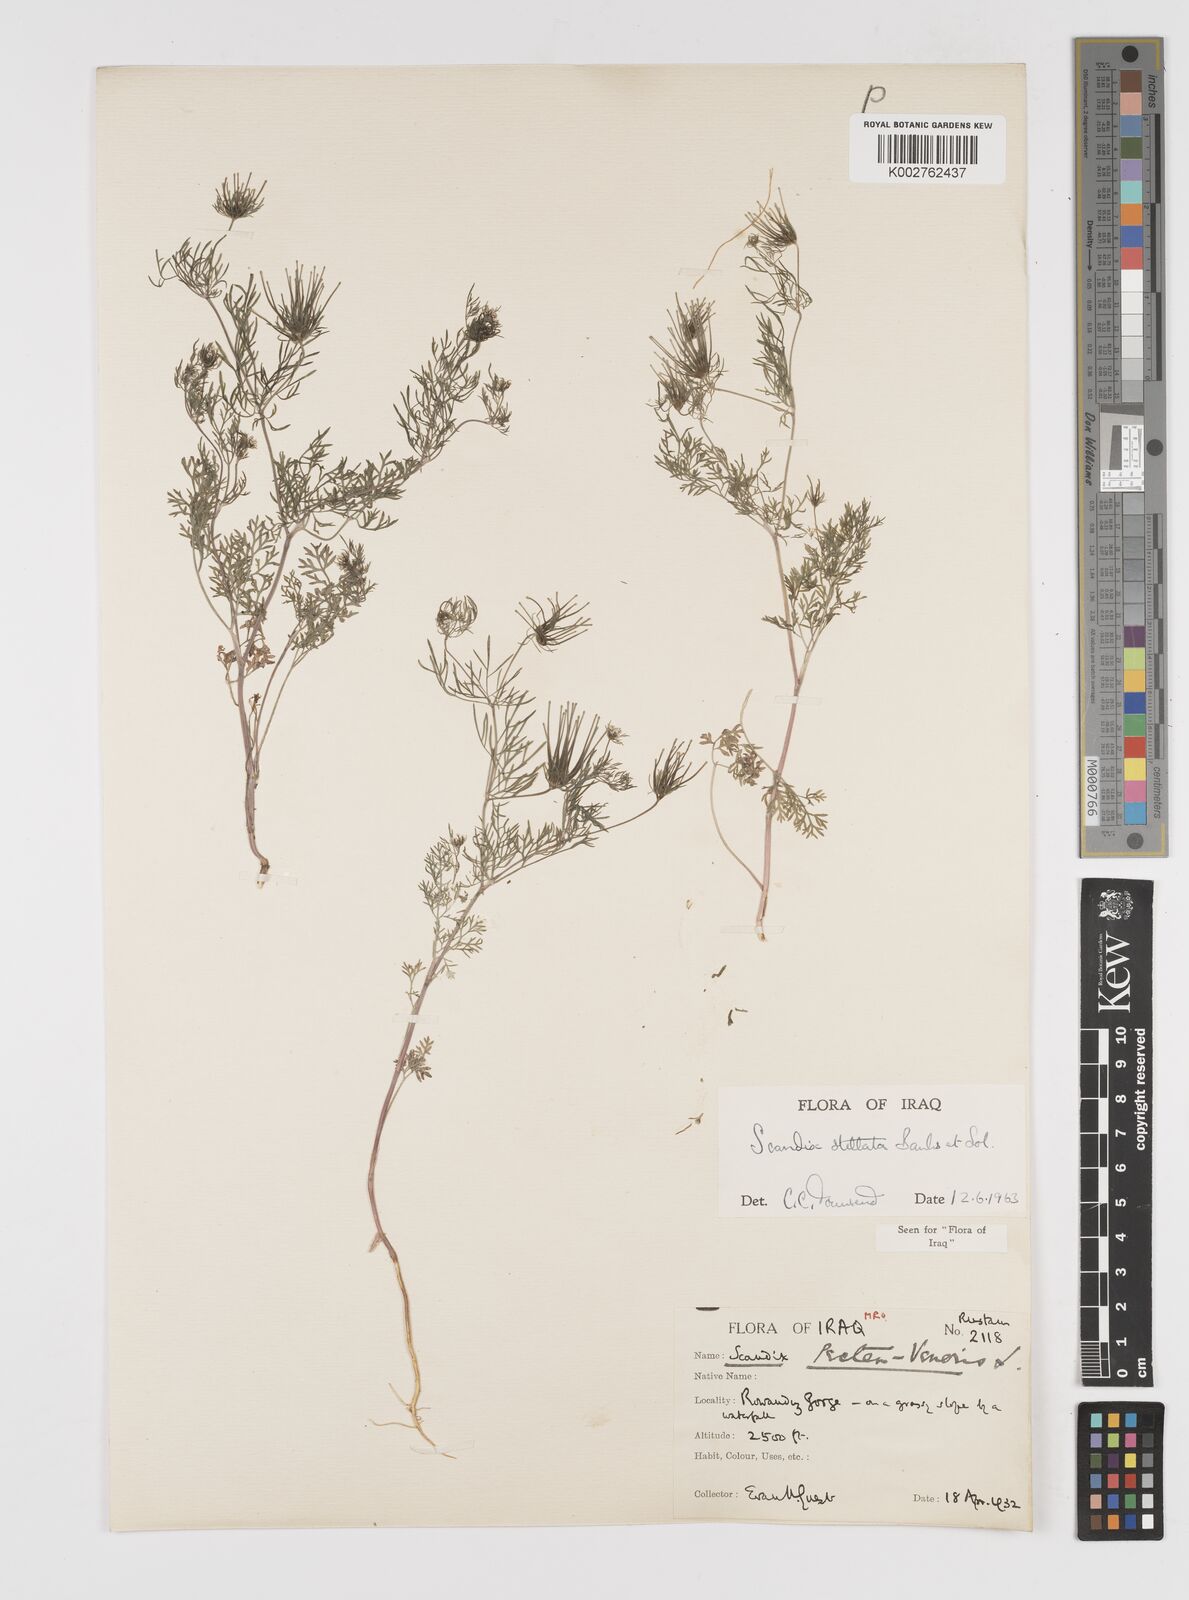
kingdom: Plantae
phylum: Tracheophyta
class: Magnoliopsida
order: Apiales
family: Apiaceae
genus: Scandix
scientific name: Scandix stellata
